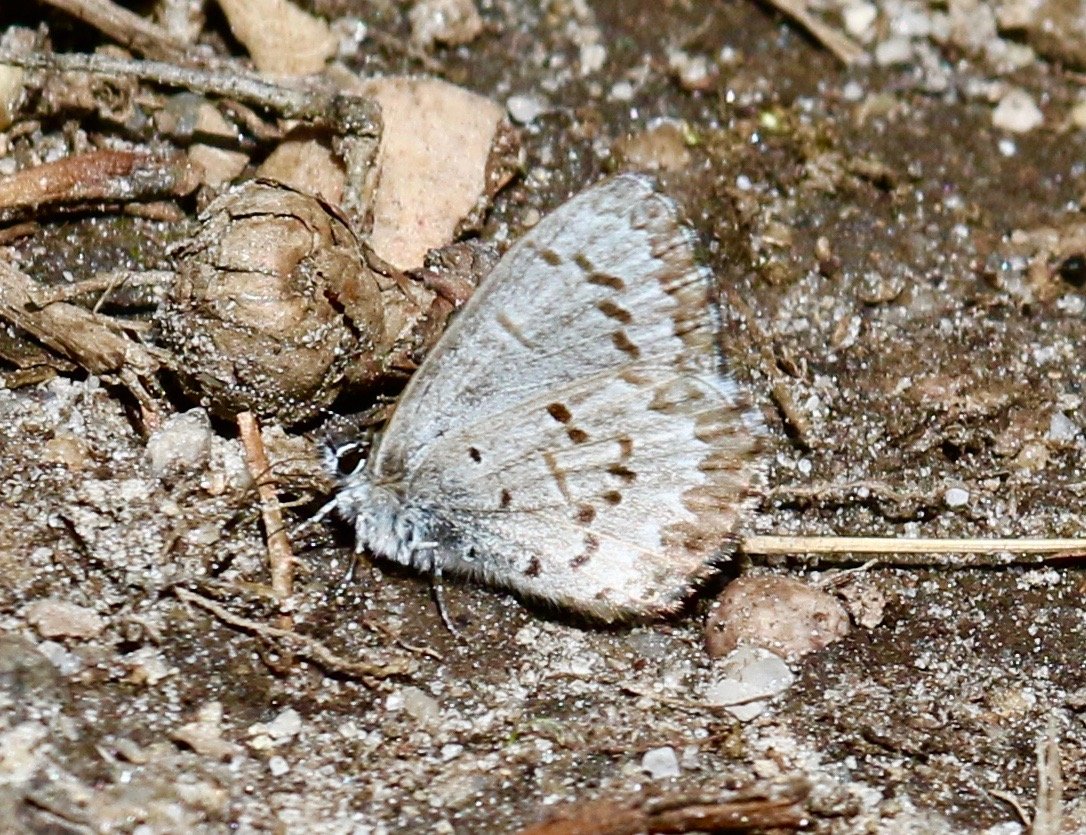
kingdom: Animalia
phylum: Arthropoda
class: Insecta
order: Lepidoptera
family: Lycaenidae
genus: Celastrina
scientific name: Celastrina ladon
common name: Spring Azure
